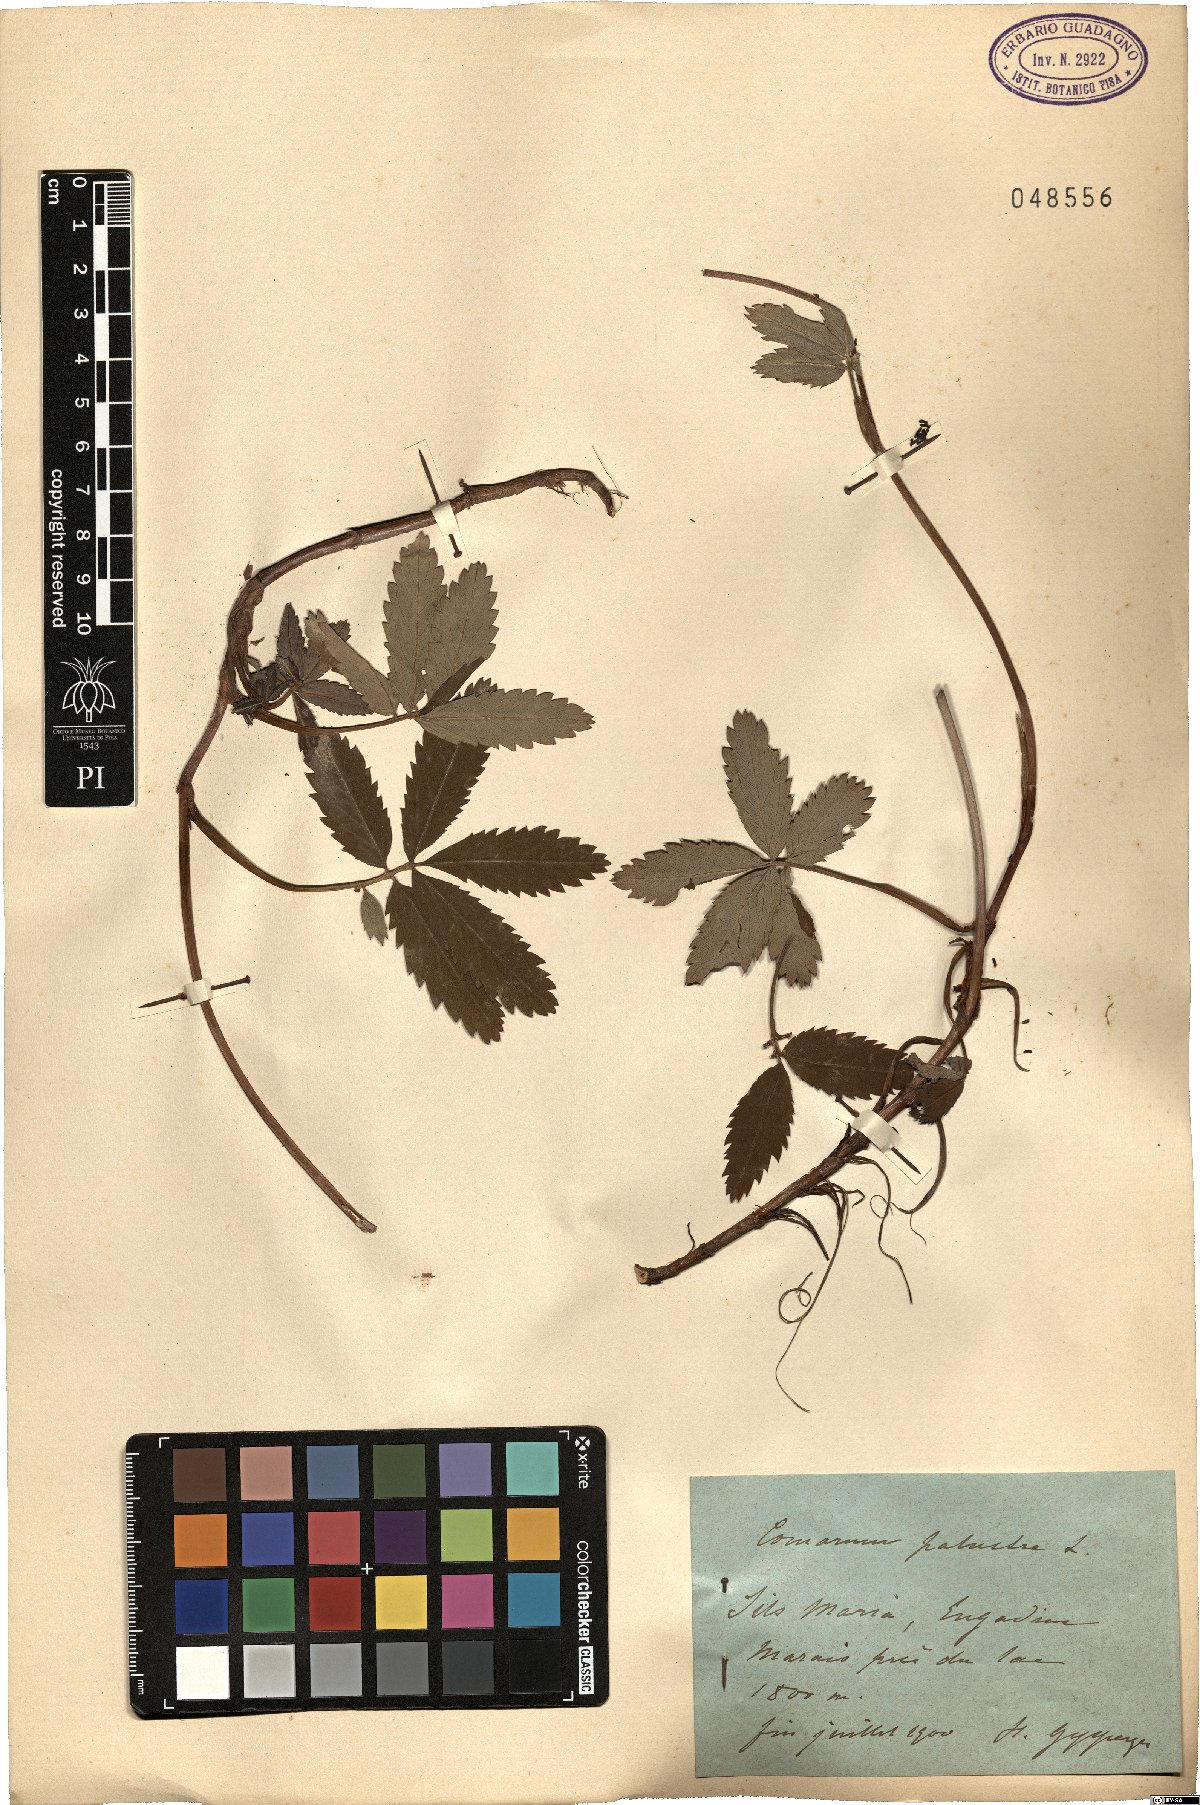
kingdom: Plantae
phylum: Tracheophyta
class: Magnoliopsida
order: Rosales
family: Rosaceae
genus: Comarum
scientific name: Comarum palustre
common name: Marsh cinquefoil
